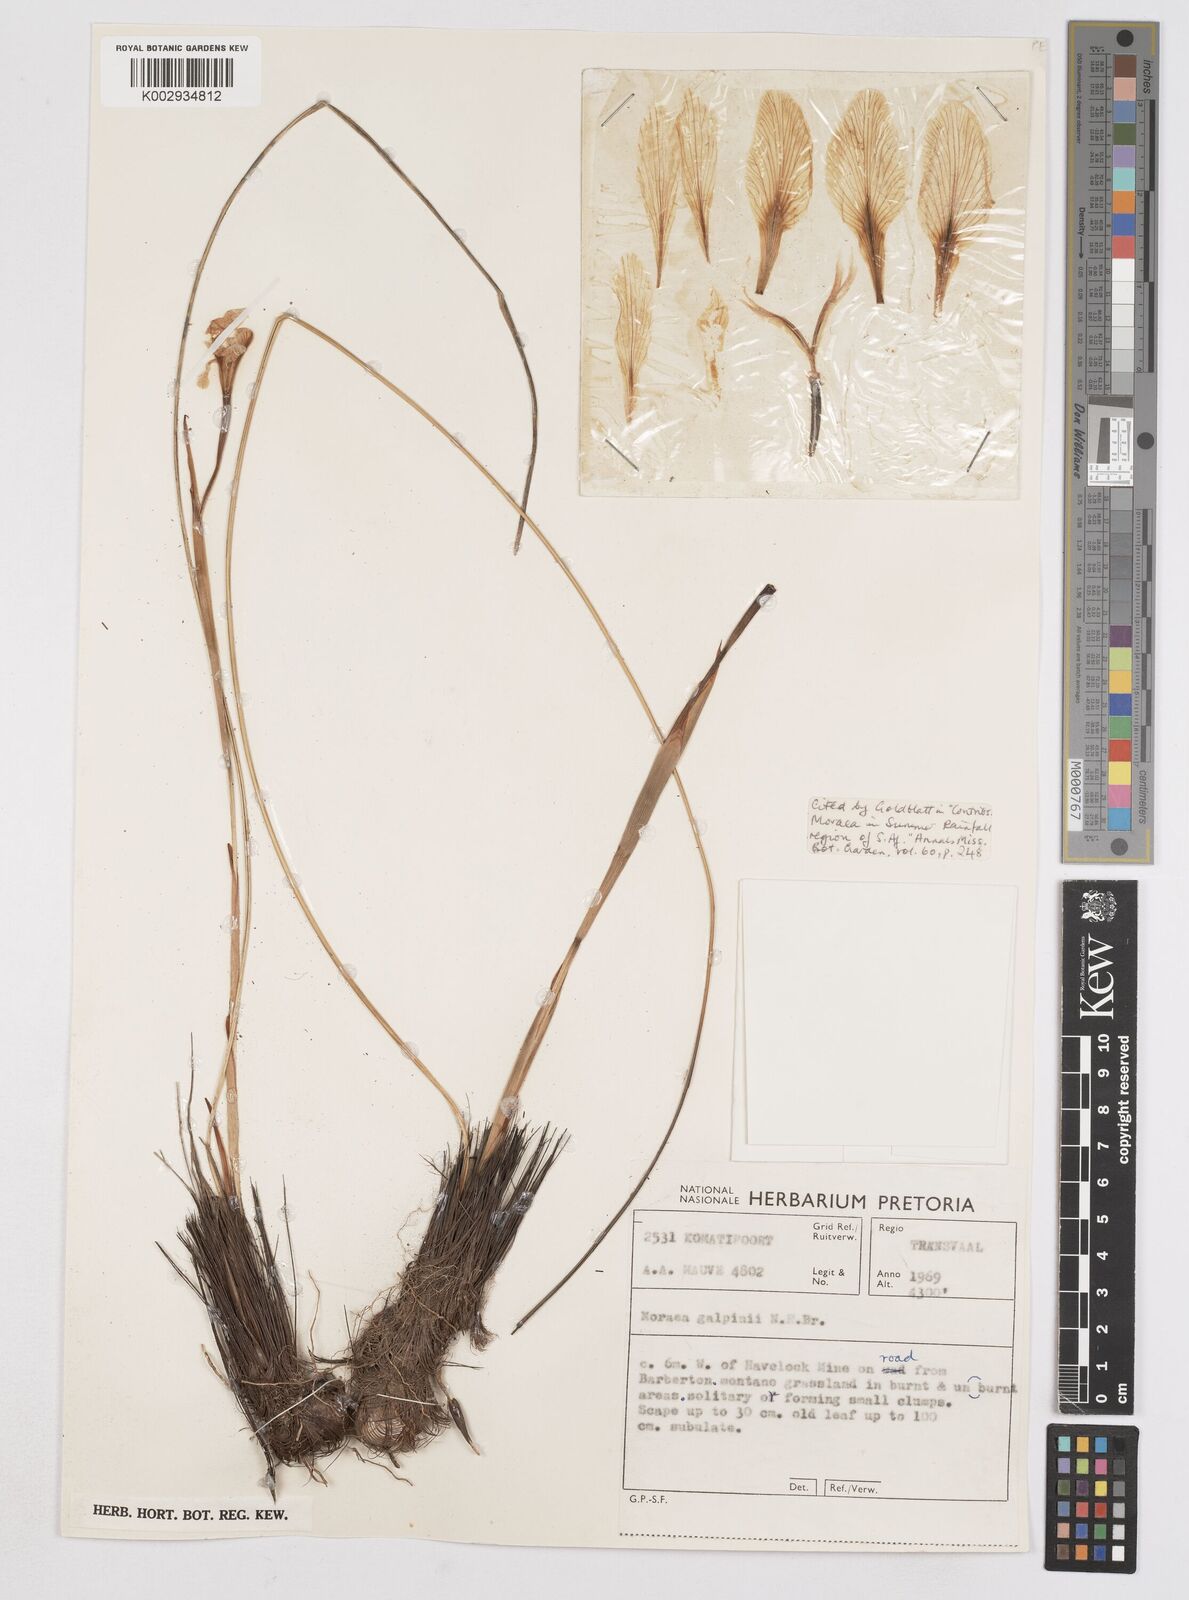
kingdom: Plantae
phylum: Tracheophyta
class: Liliopsida
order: Asparagales
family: Iridaceae
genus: Moraea
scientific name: Moraea galpinii
